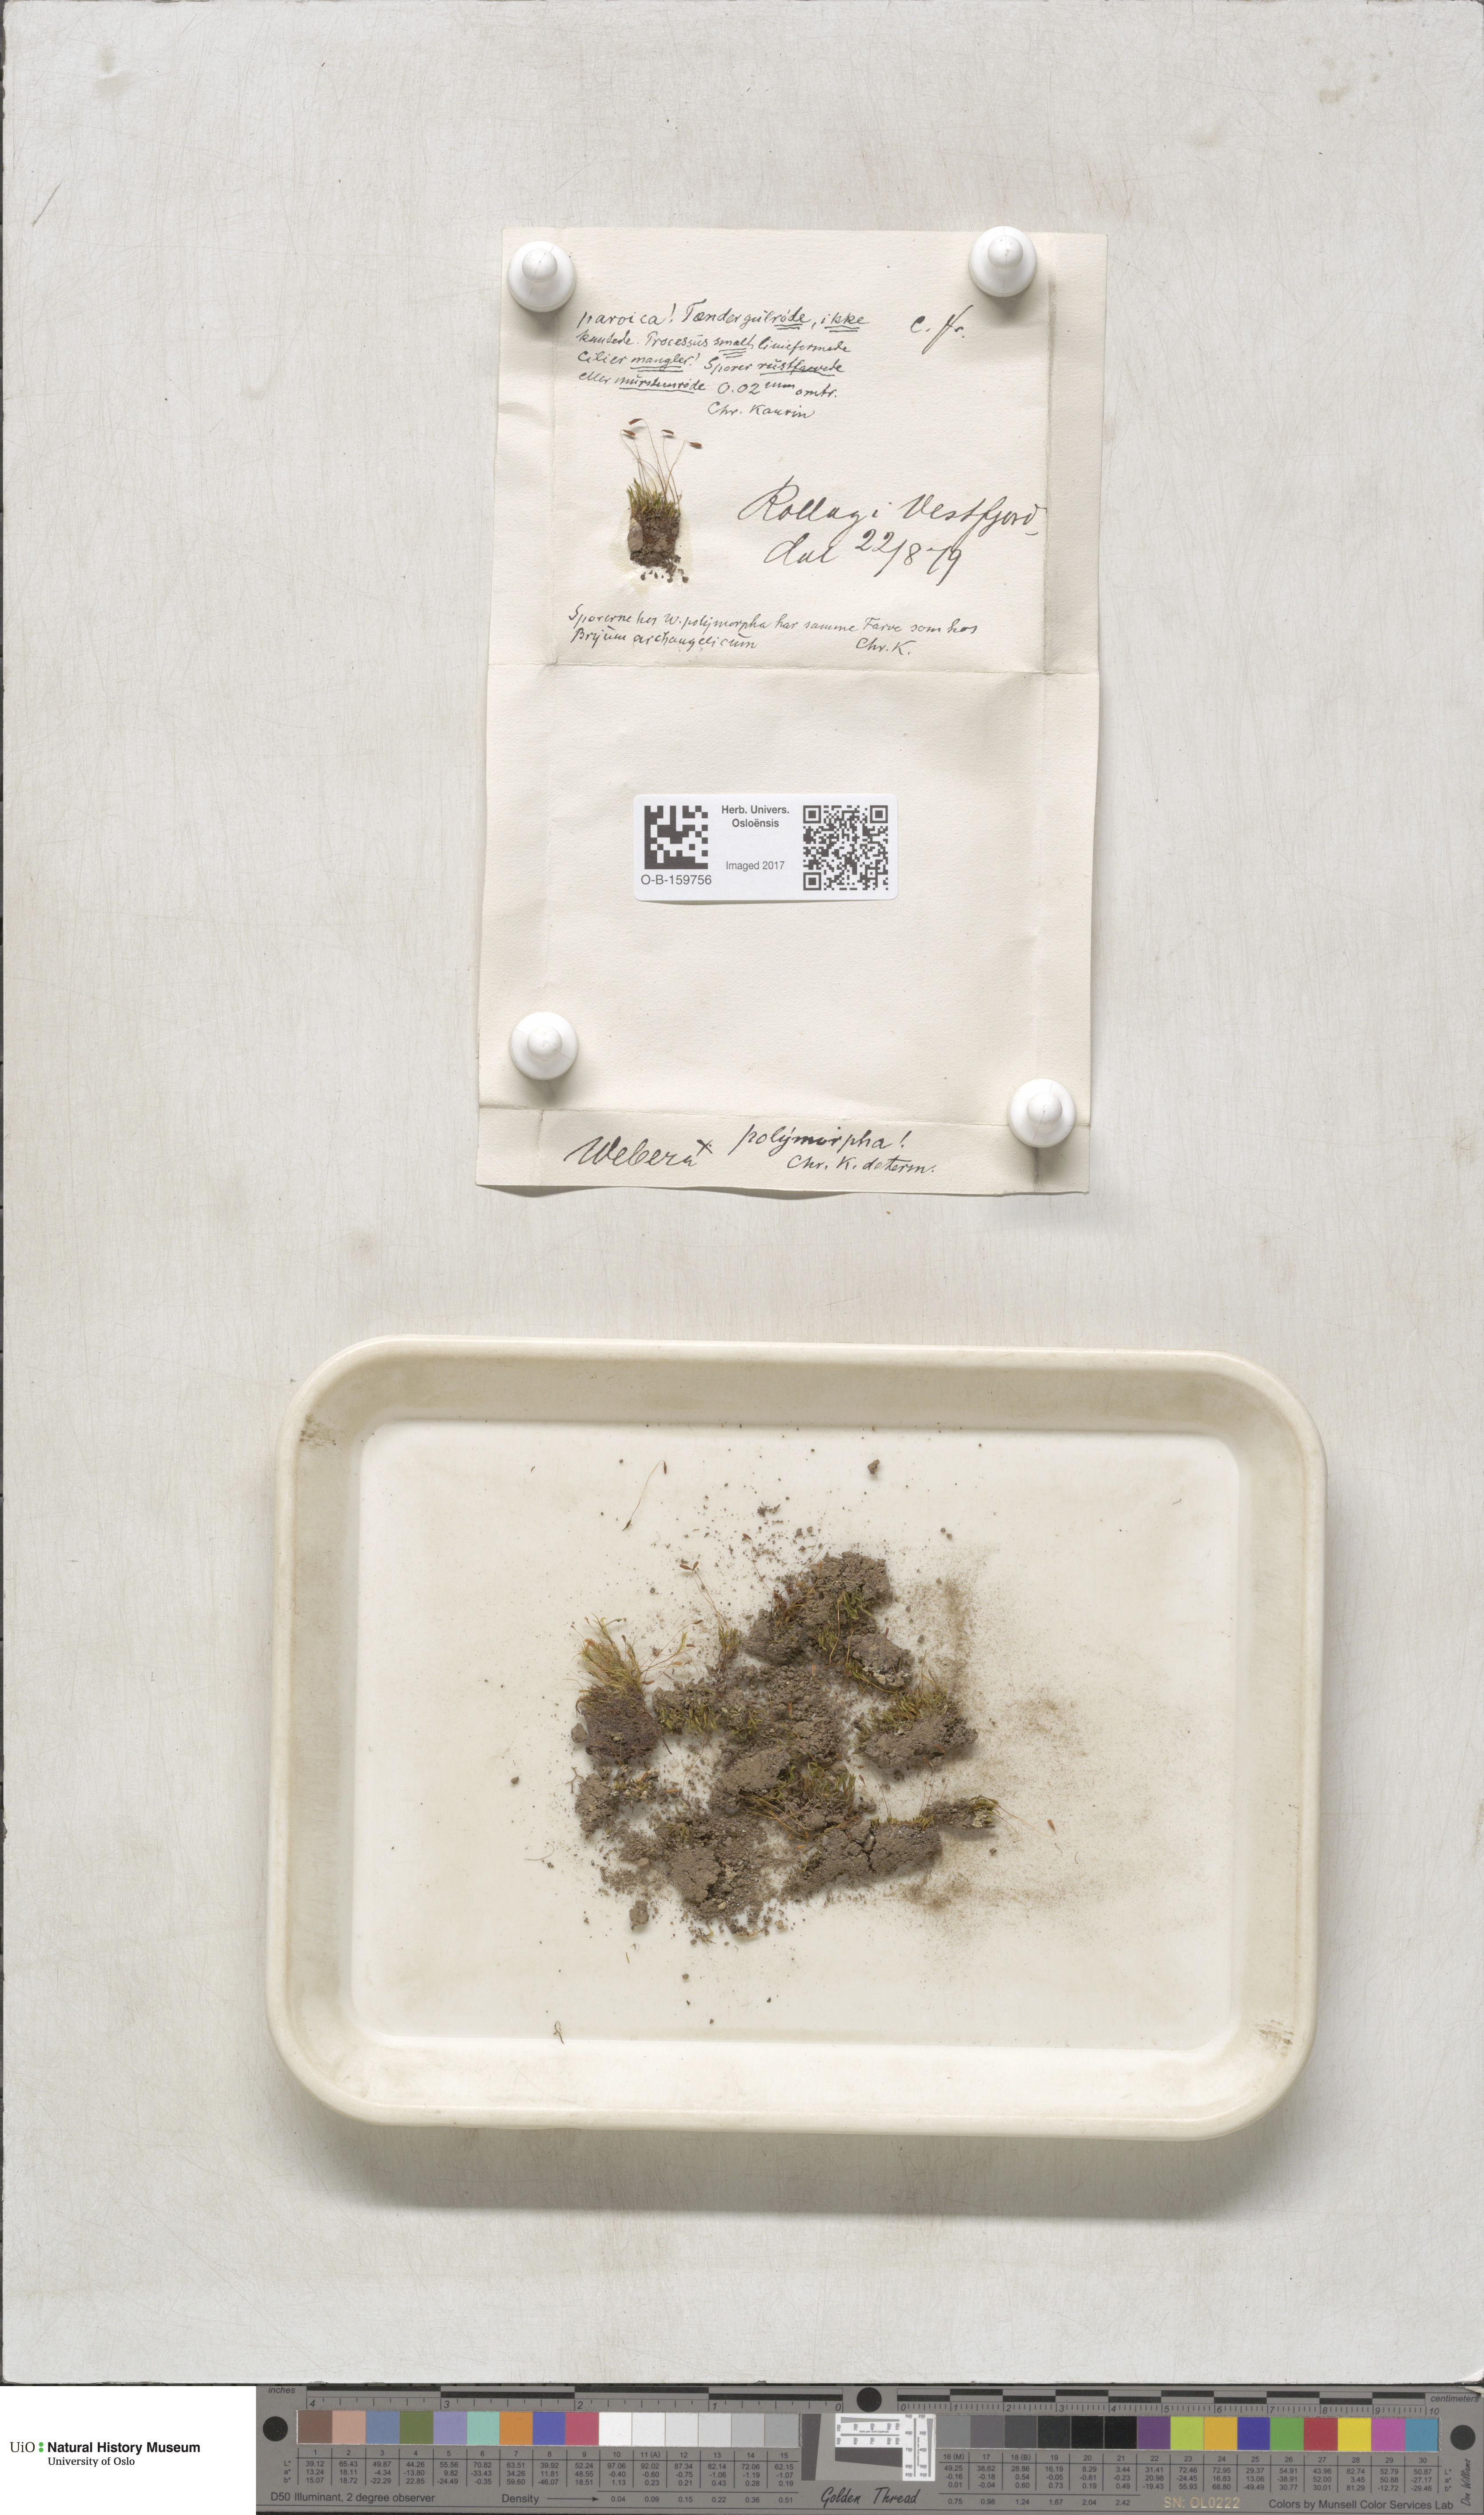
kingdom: Plantae
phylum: Bryophyta
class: Bryopsida
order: Bryales
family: Mniaceae
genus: Pohlia
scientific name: Pohlia elongata
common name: Long-fruited thread-moss
